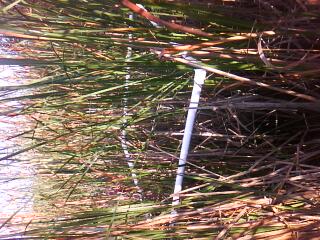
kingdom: Plantae
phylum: Tracheophyta
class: Magnoliopsida
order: Asterales
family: Asteraceae
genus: Eutrochium
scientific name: Eutrochium maculatum
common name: Spotted joe pye weed
